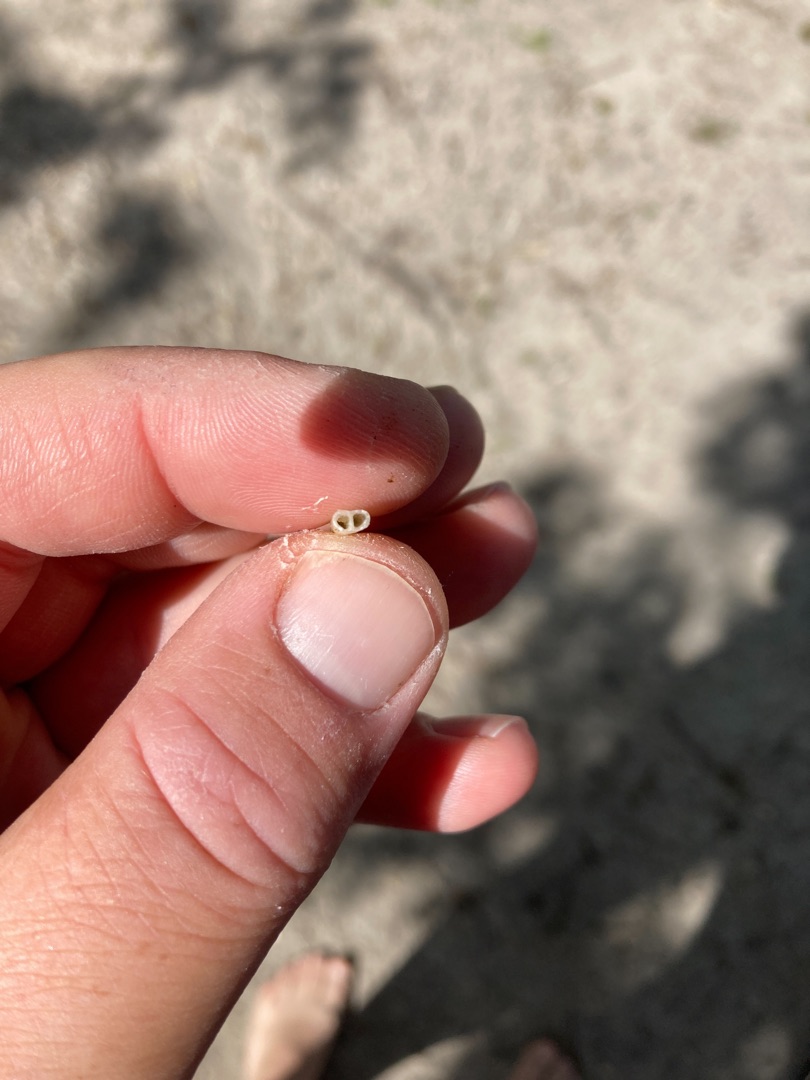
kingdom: Plantae
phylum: Tracheophyta
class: Magnoliopsida
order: Asterales
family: Campanulaceae
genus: Lobelia
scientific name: Lobelia dortmanna
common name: Tvepibet lobelie
